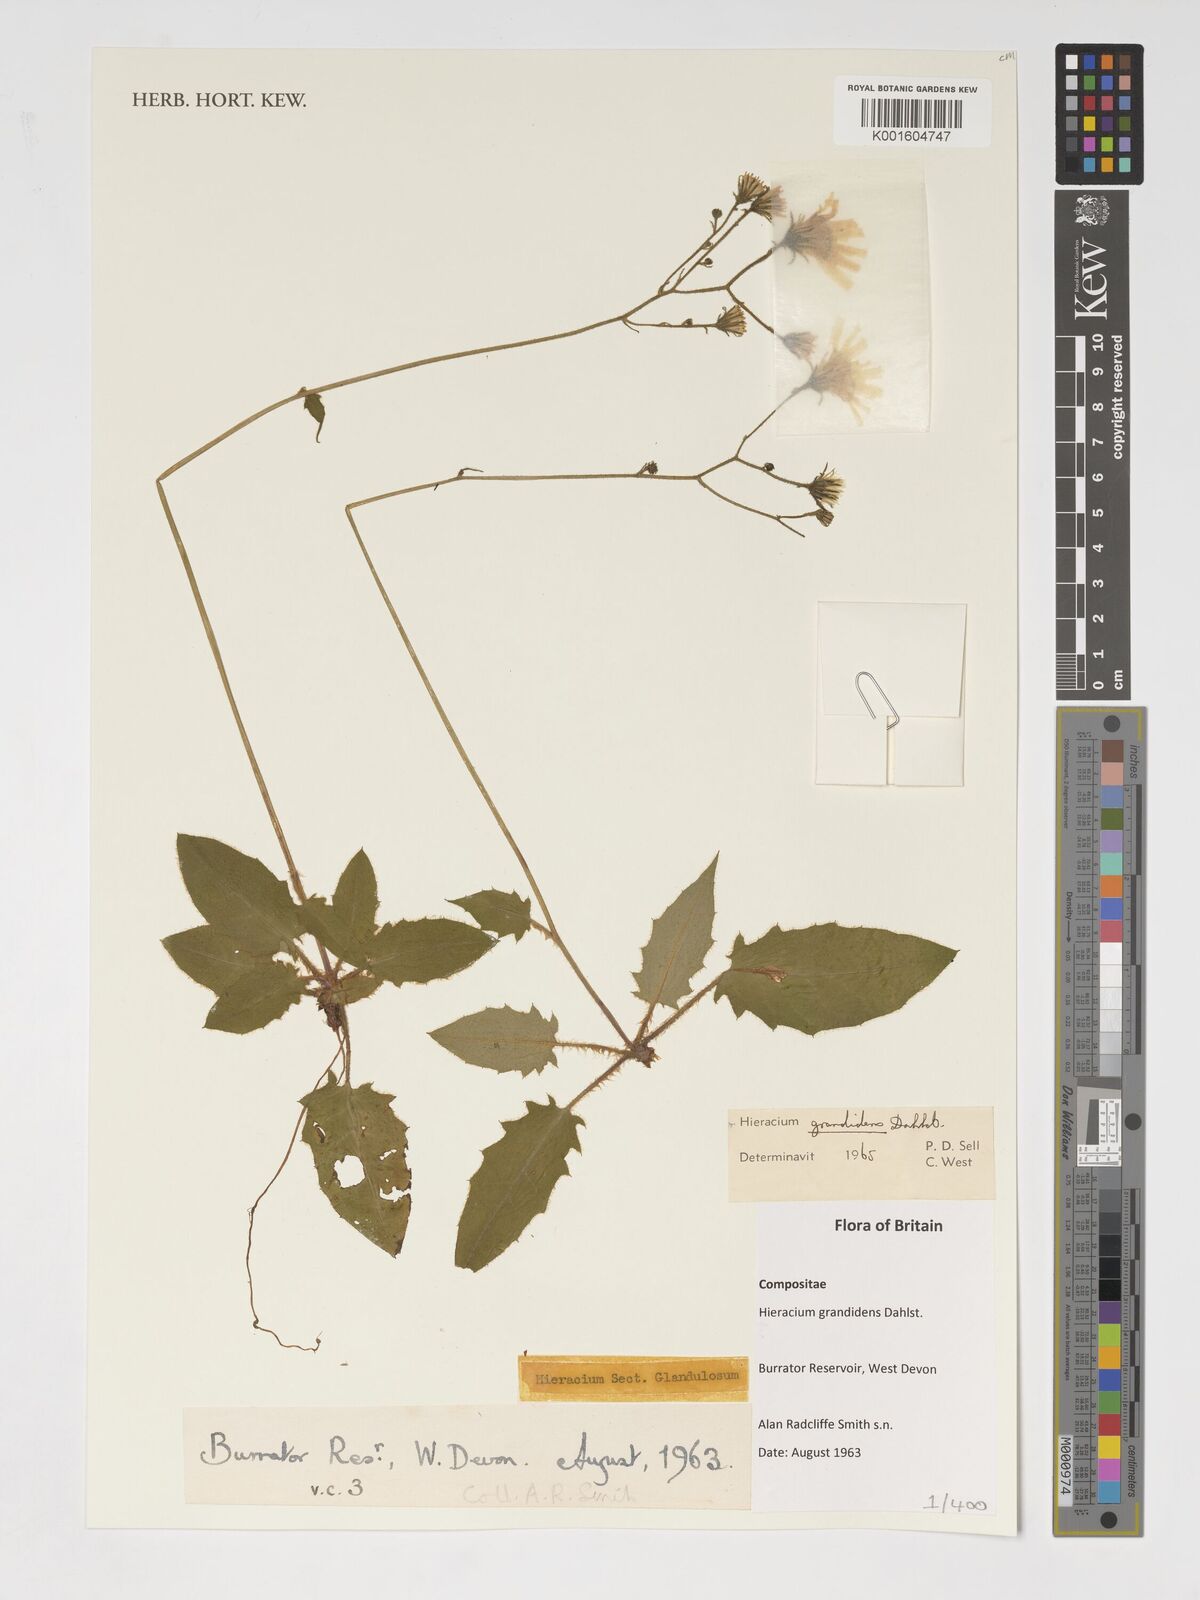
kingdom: Plantae
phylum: Tracheophyta
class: Magnoliopsida
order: Asterales
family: Asteraceae
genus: Hieracium
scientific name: Hieracium murorum
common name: Wall hawkweed
